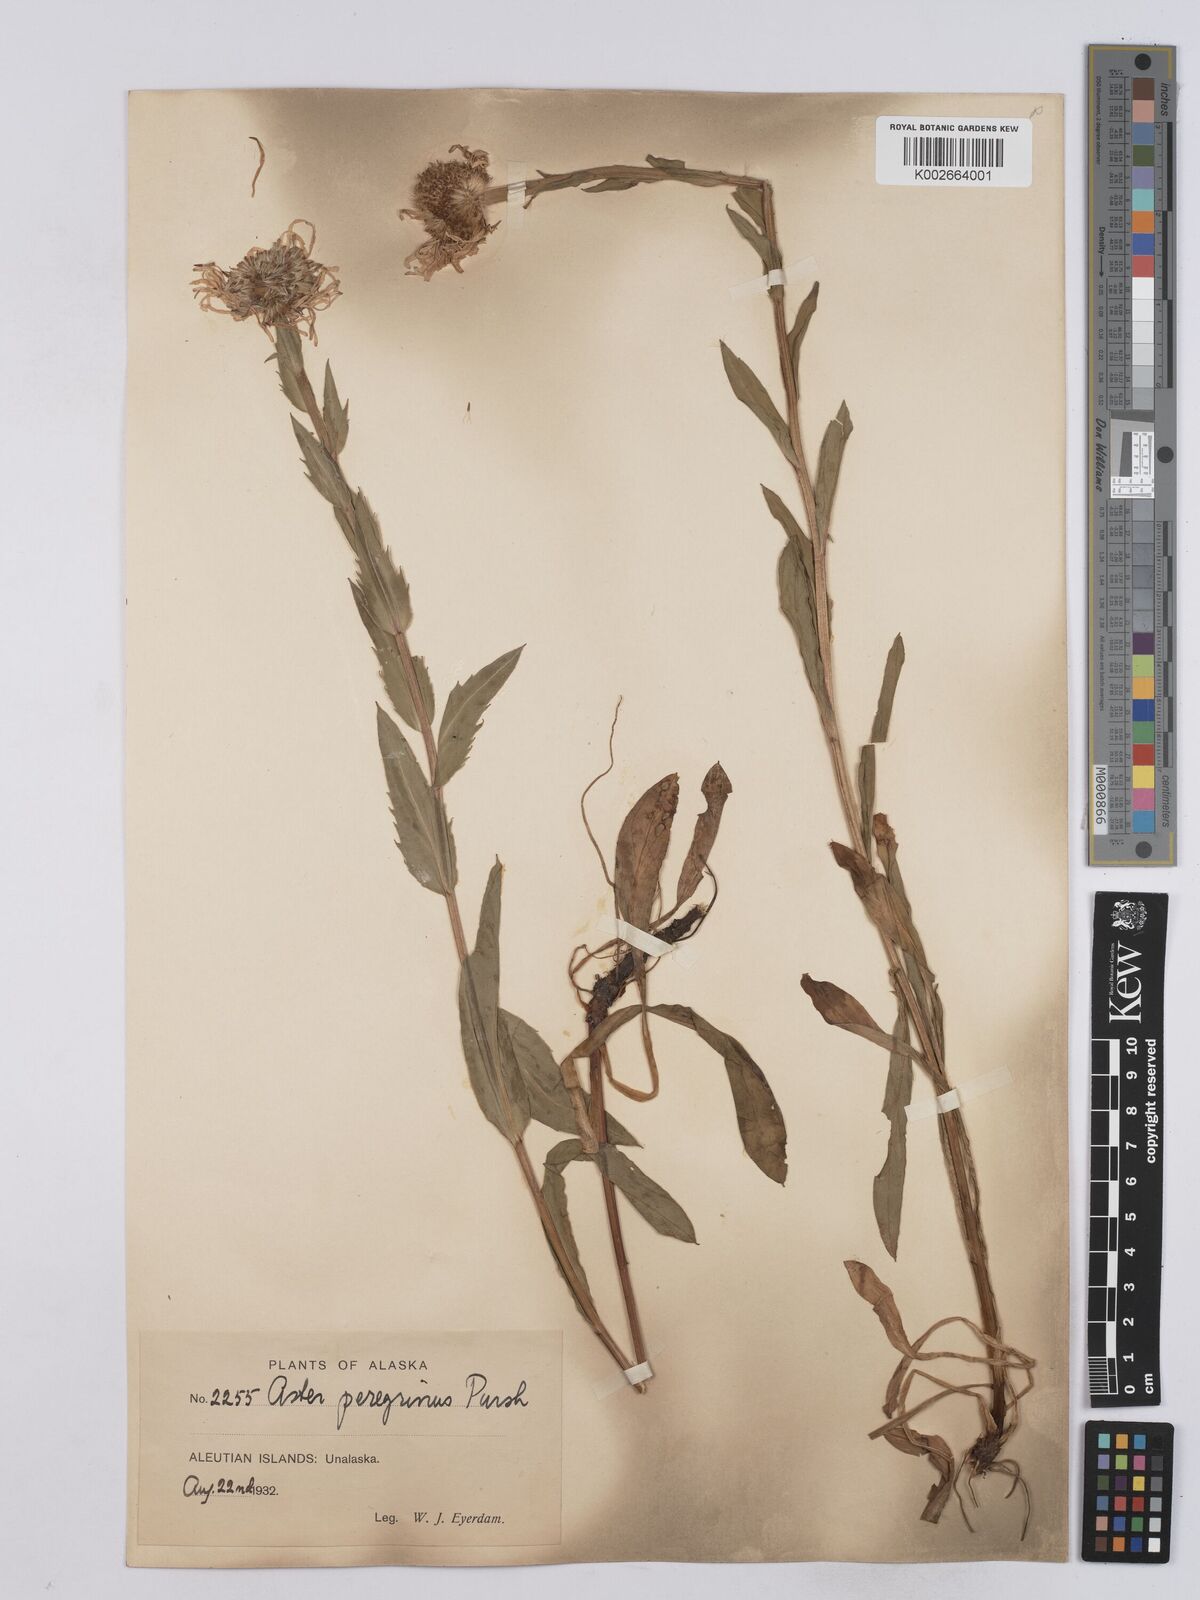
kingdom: Plantae
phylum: Tracheophyta
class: Magnoliopsida
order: Asterales
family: Asteraceae
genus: Erigeron
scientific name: Erigeron peregrinus
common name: Peregrine fleabane
